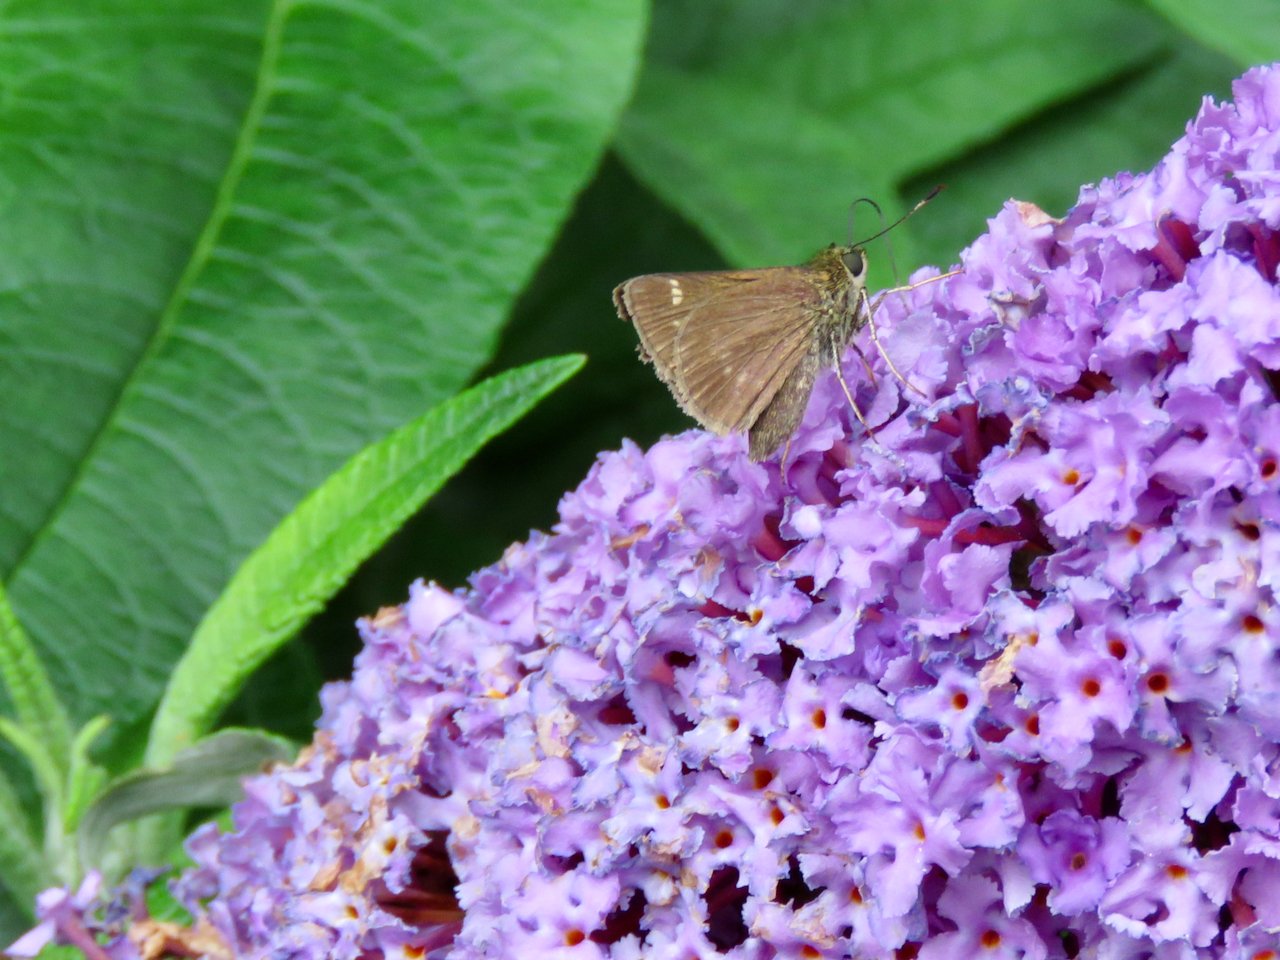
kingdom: Animalia
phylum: Arthropoda
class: Insecta
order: Lepidoptera
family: Hesperiidae
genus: Vernia
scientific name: Vernia verna
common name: Little Glassywing
